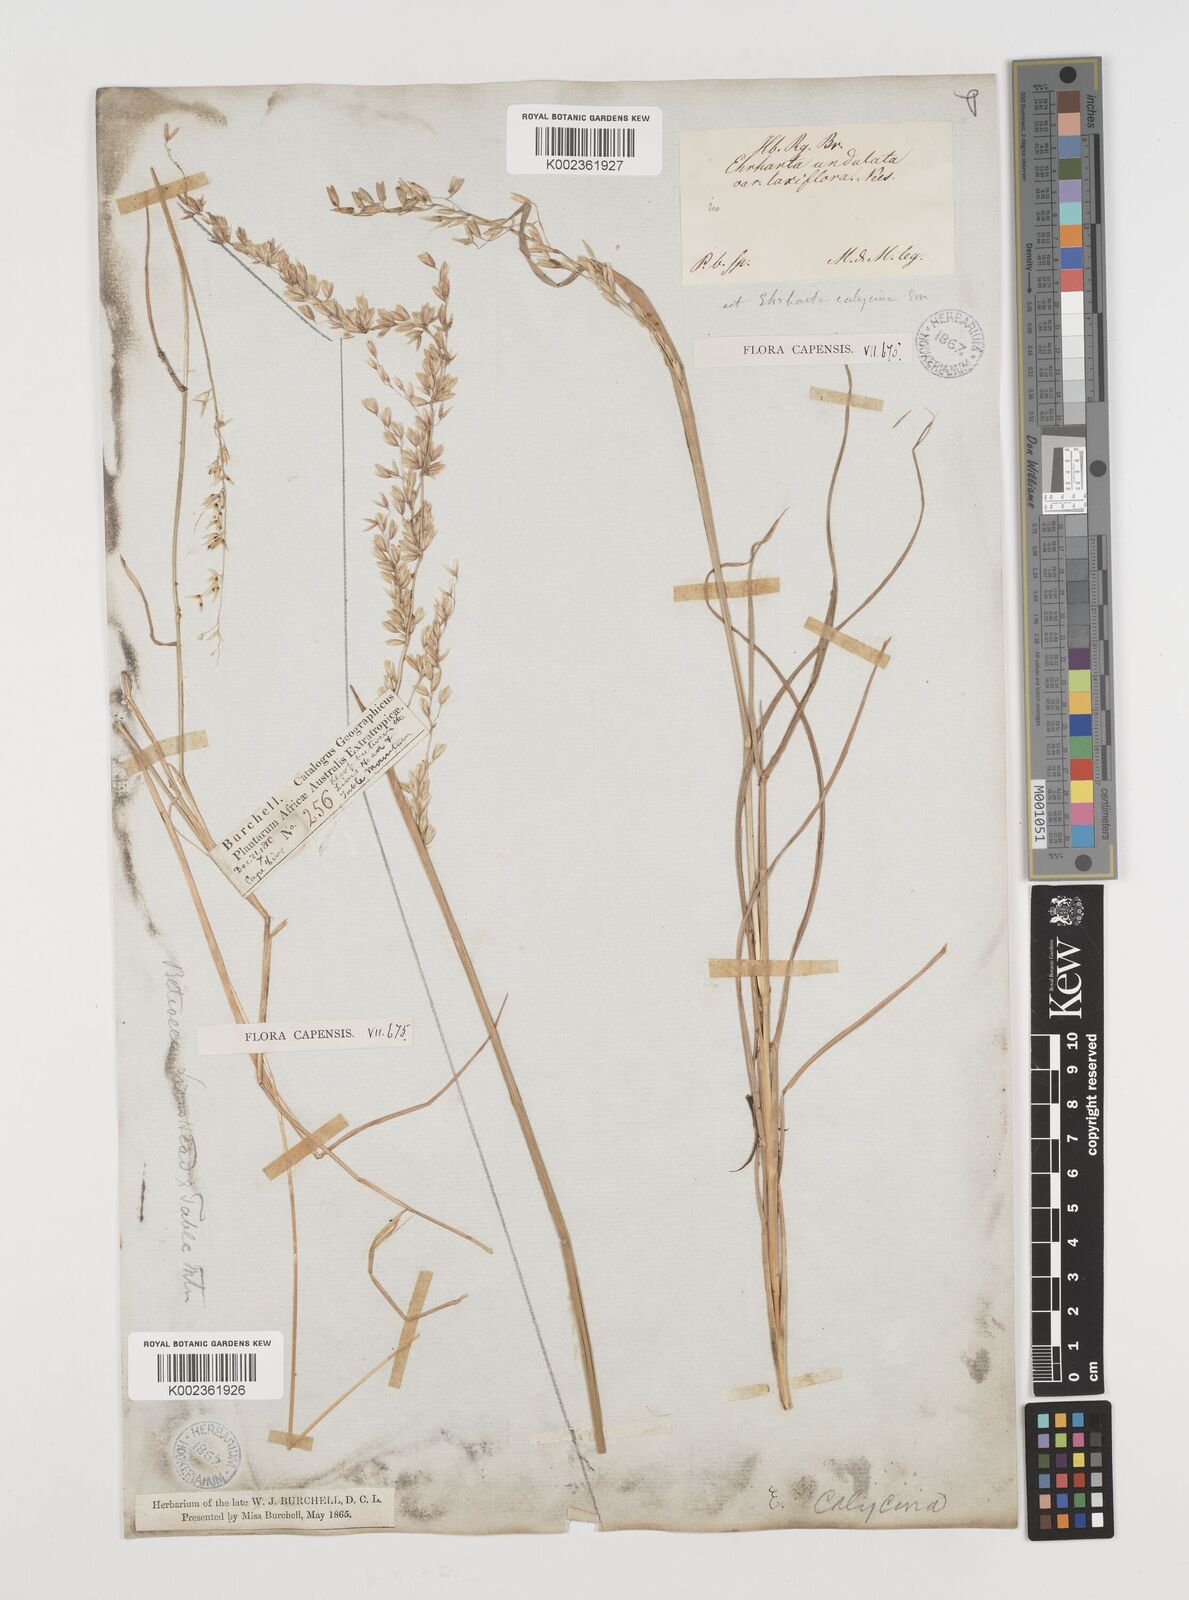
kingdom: Plantae
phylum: Tracheophyta
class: Liliopsida
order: Poales
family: Poaceae
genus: Ehrharta
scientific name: Ehrharta calycina
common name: Perennial veldtgrass
